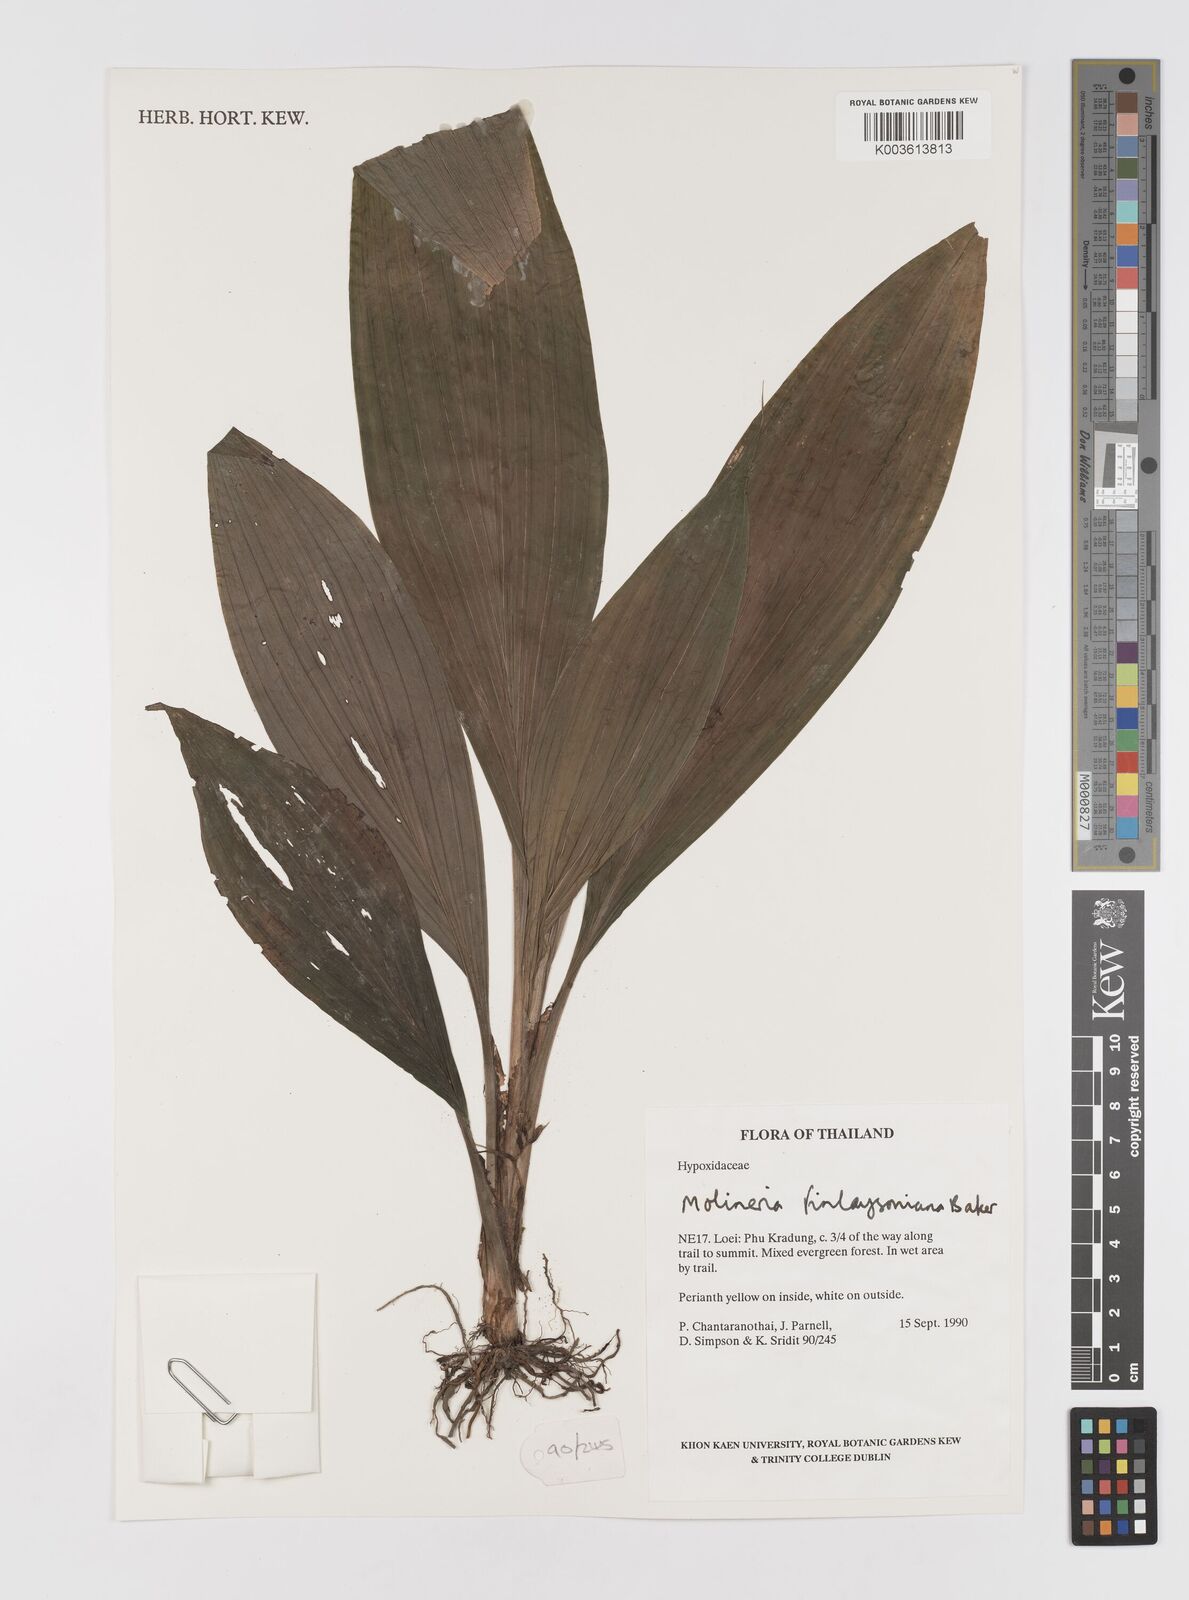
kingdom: Plantae
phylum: Tracheophyta
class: Liliopsida
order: Asparagales
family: Hypoxidaceae
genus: Curculigo
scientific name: Curculigo trichocarpa
